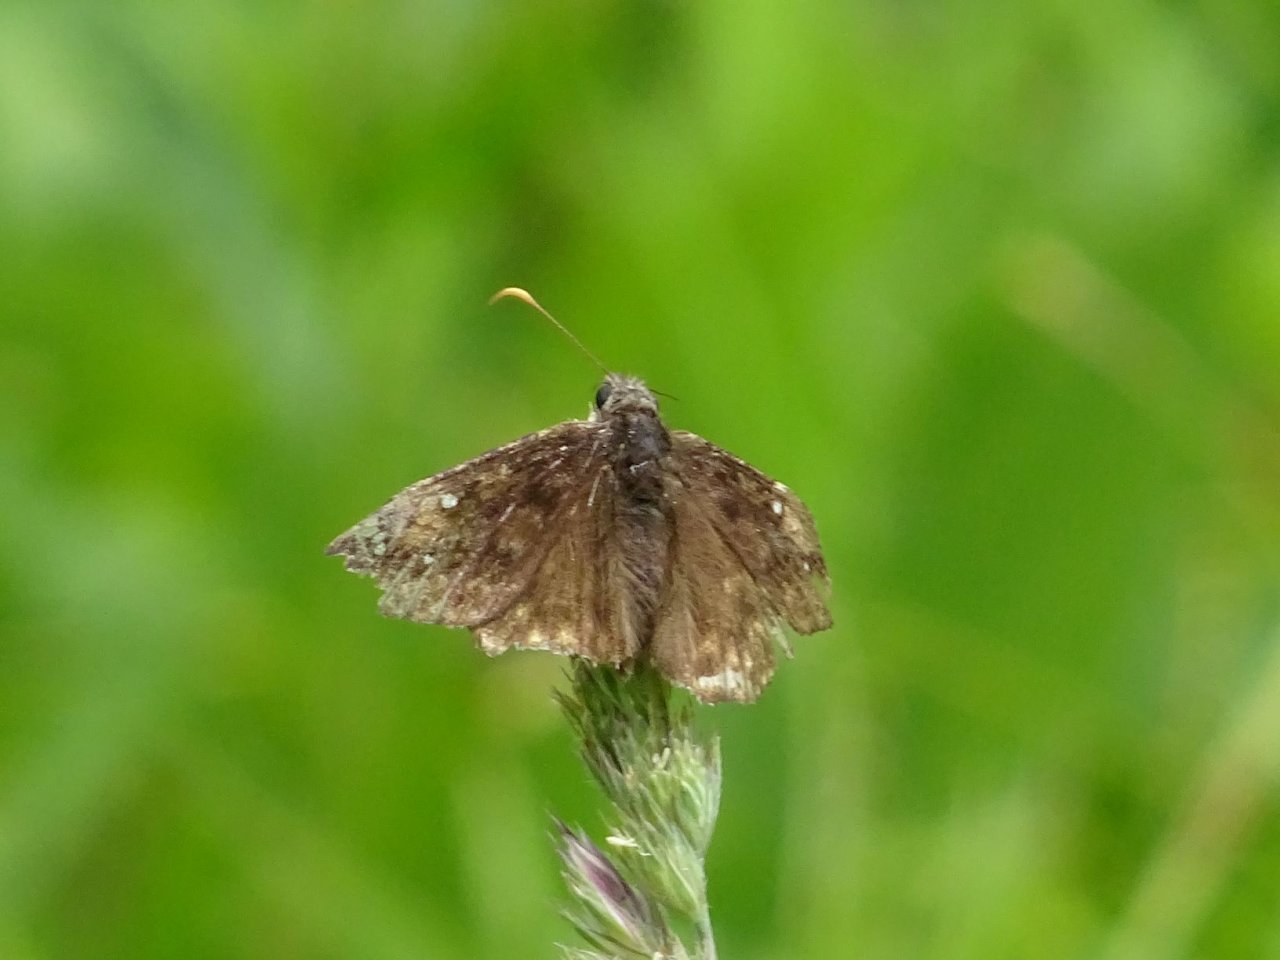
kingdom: Animalia
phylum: Arthropoda
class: Insecta
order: Lepidoptera
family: Hesperiidae
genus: Gesta
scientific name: Gesta
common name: Juvenal's Duskywing
